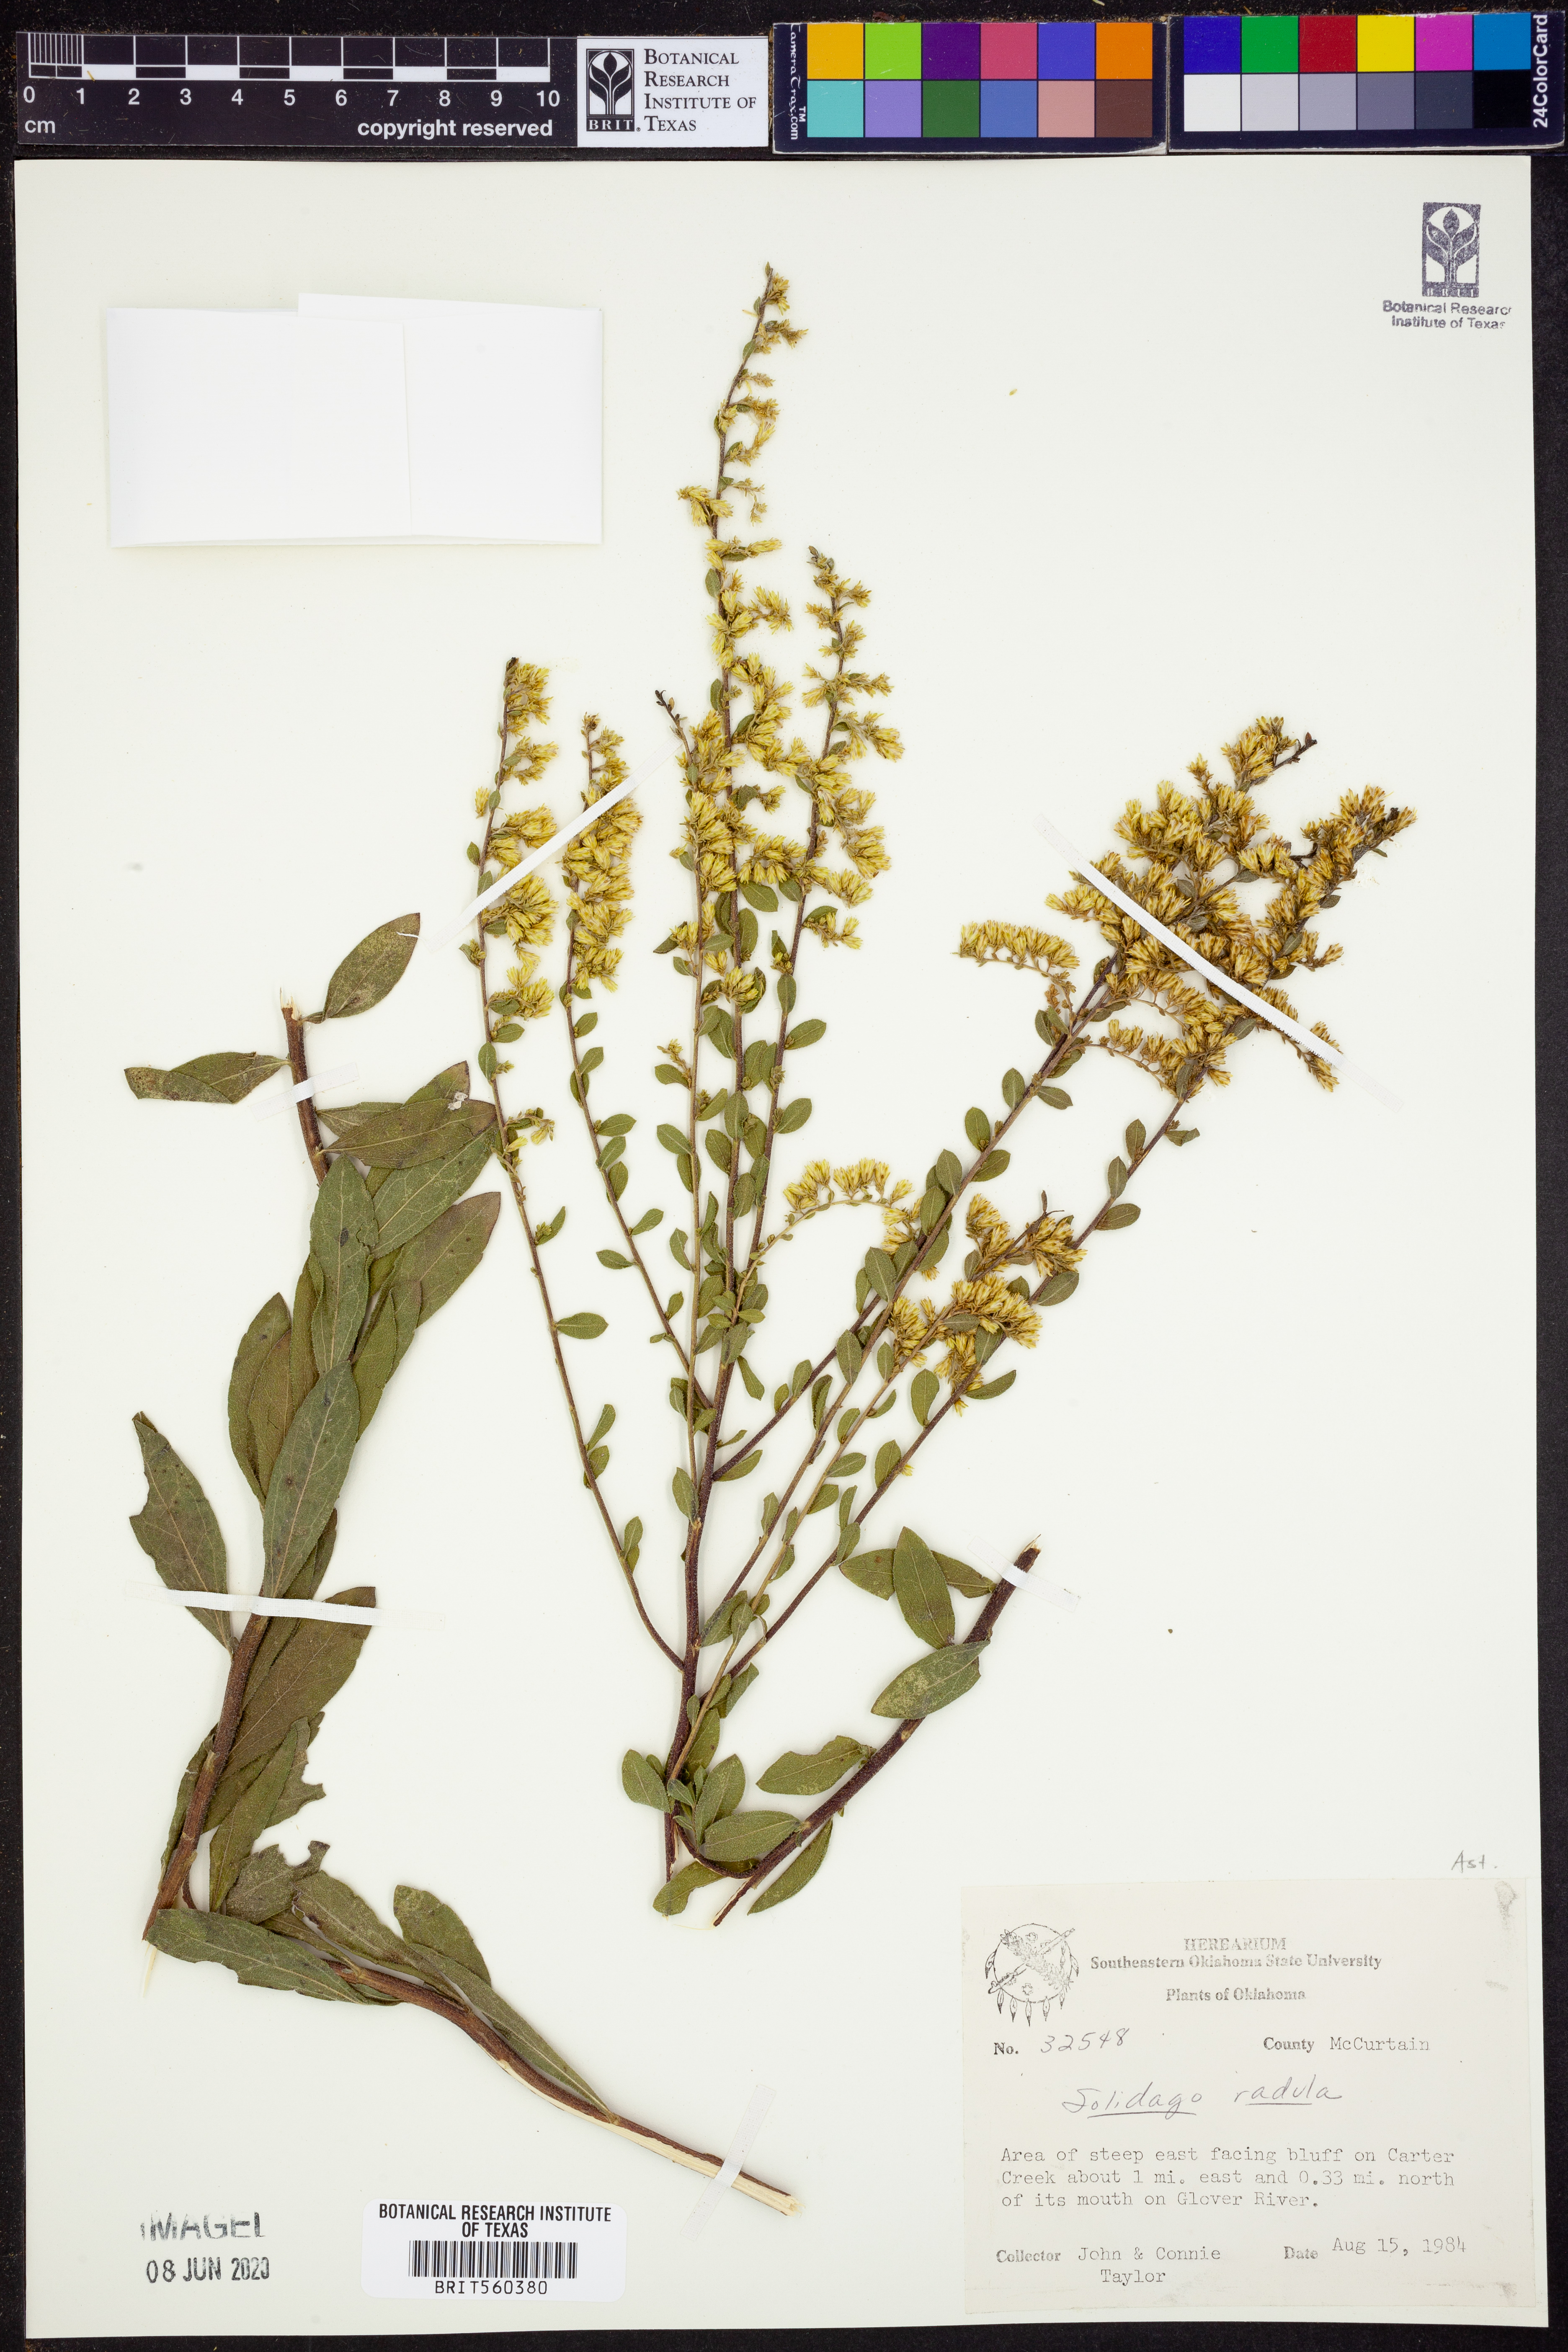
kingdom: Plantae
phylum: Tracheophyta
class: Magnoliopsida
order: Asterales
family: Asteraceae
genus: Solidago
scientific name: Solidago radula
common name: Western rough goldenrod
